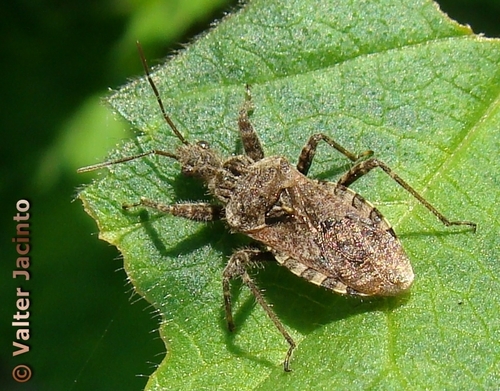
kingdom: Animalia
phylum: Arthropoda
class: Insecta
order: Hemiptera
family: Reduviidae
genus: Coranus
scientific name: Coranus griseus
